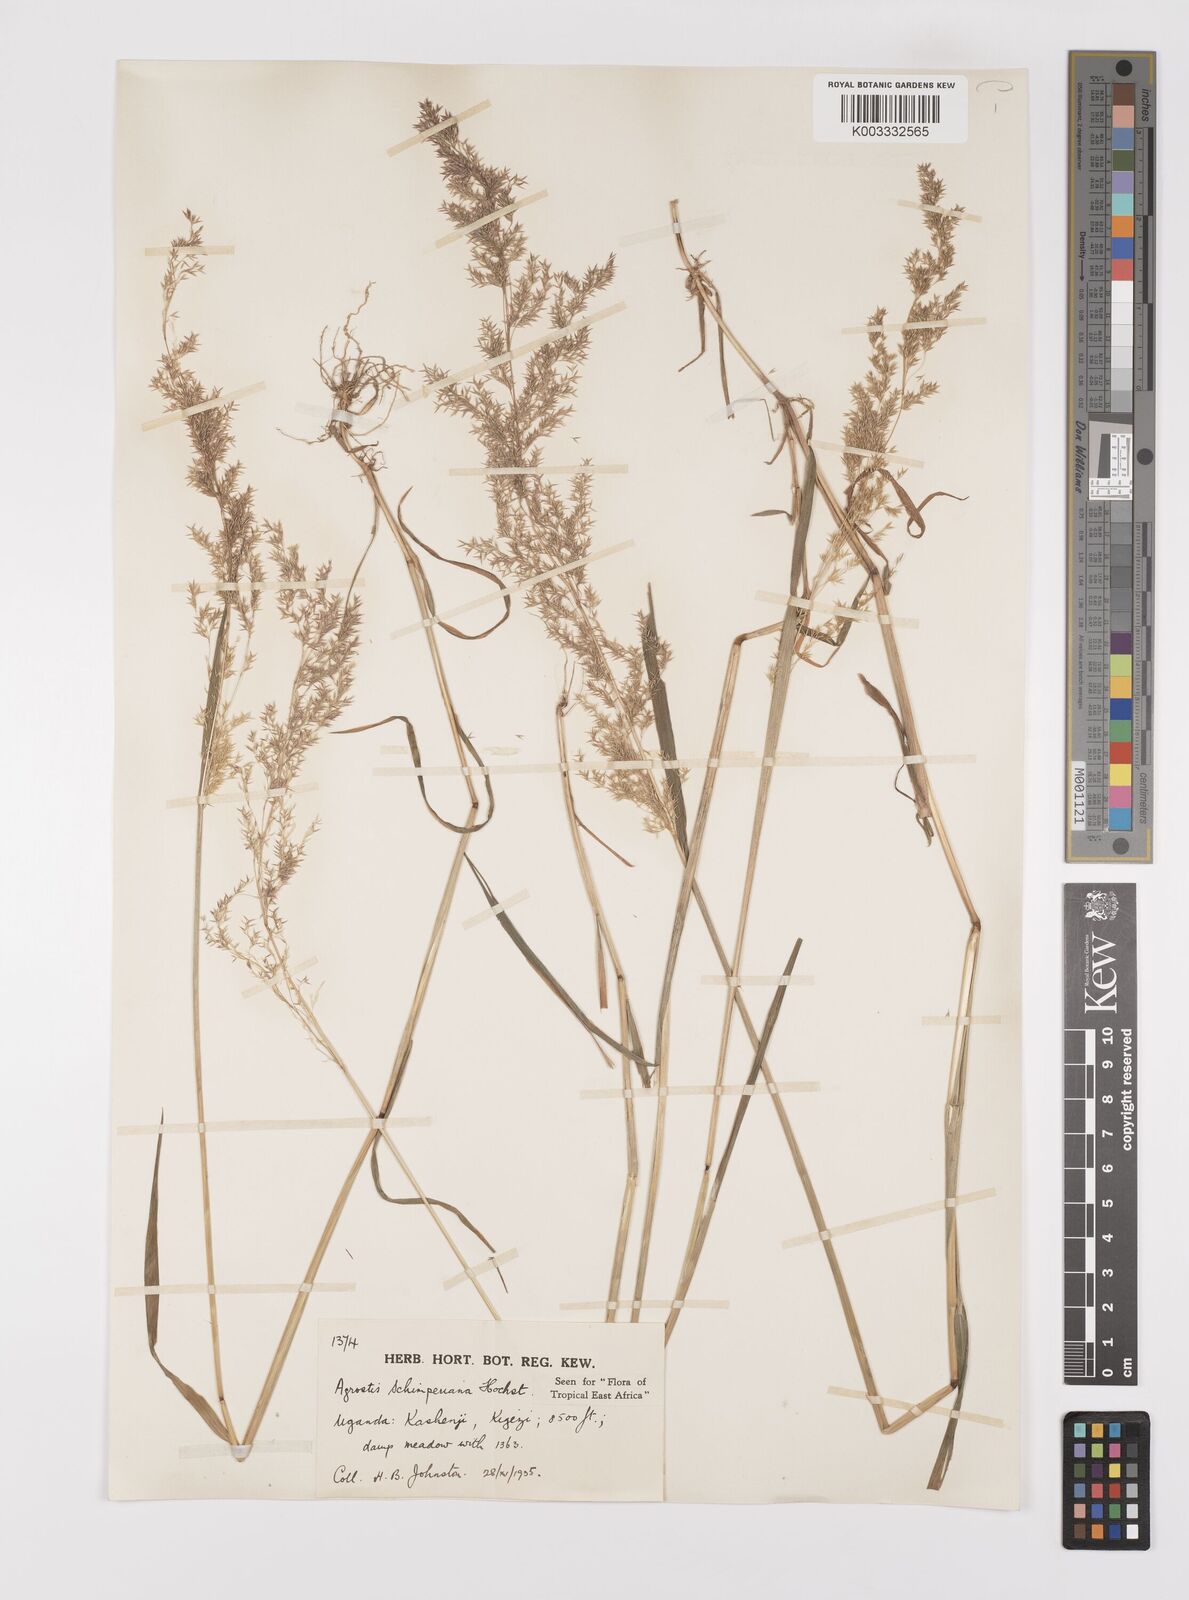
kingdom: Plantae
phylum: Tracheophyta
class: Liliopsida
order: Poales
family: Poaceae
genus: Polypogon
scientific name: Polypogon schimperianus
